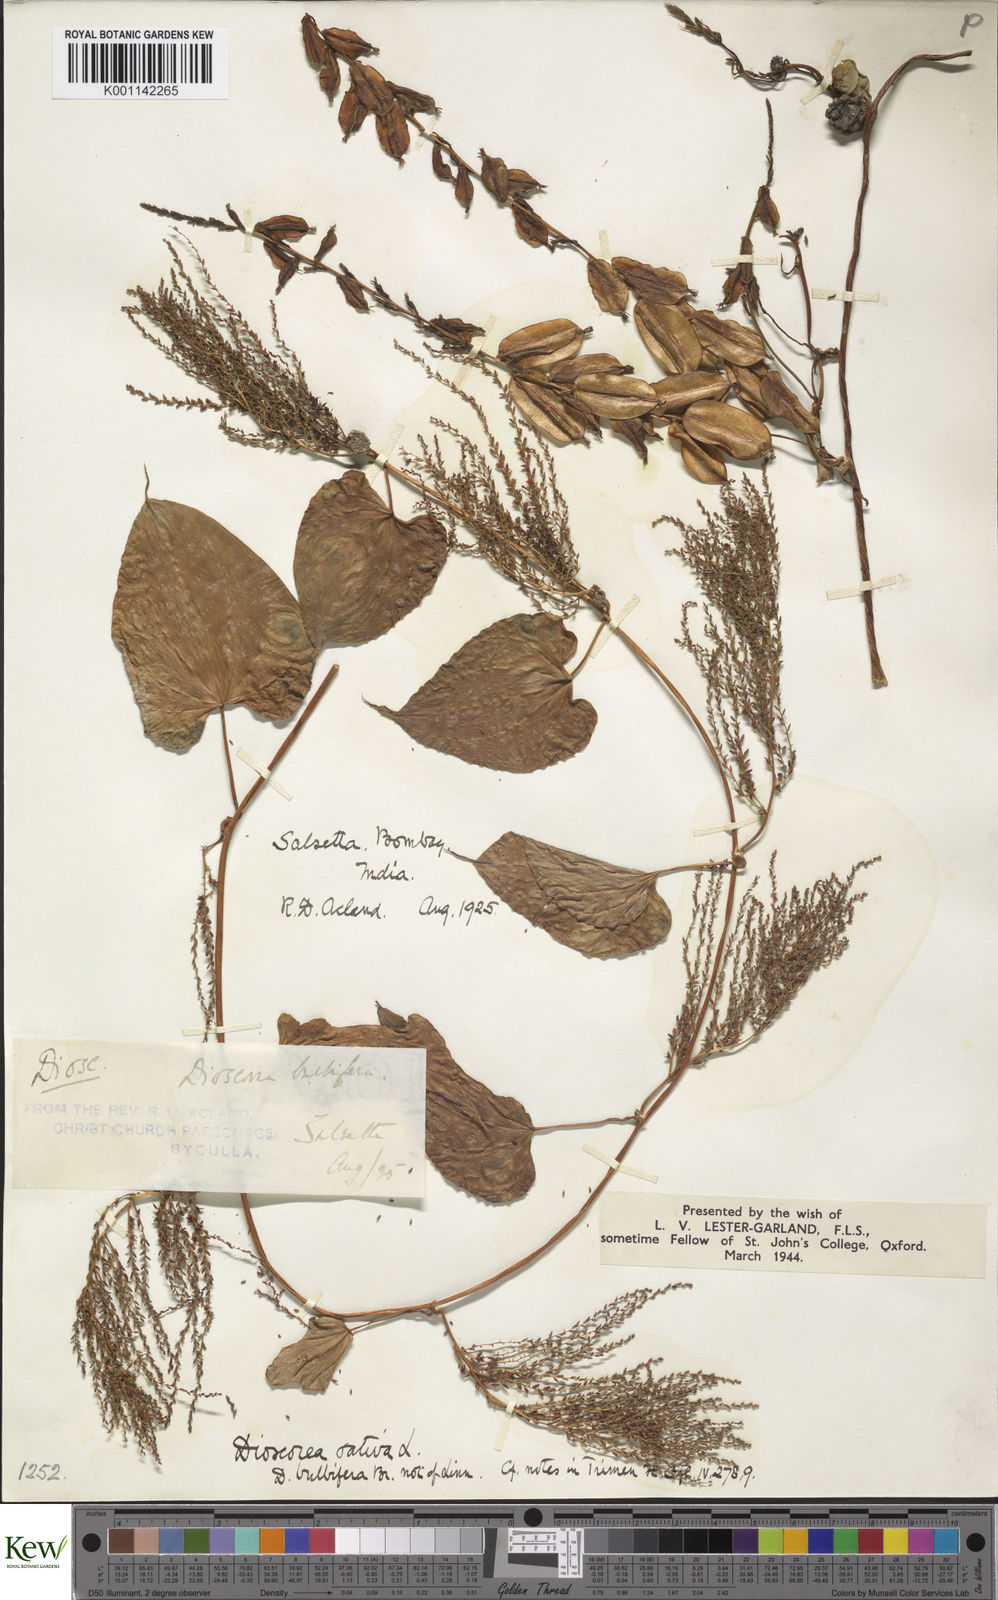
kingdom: Plantae
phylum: Tracheophyta
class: Liliopsida
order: Dioscoreales
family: Dioscoreaceae
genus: Dioscorea
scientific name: Dioscorea bulbifera
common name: Air yam
